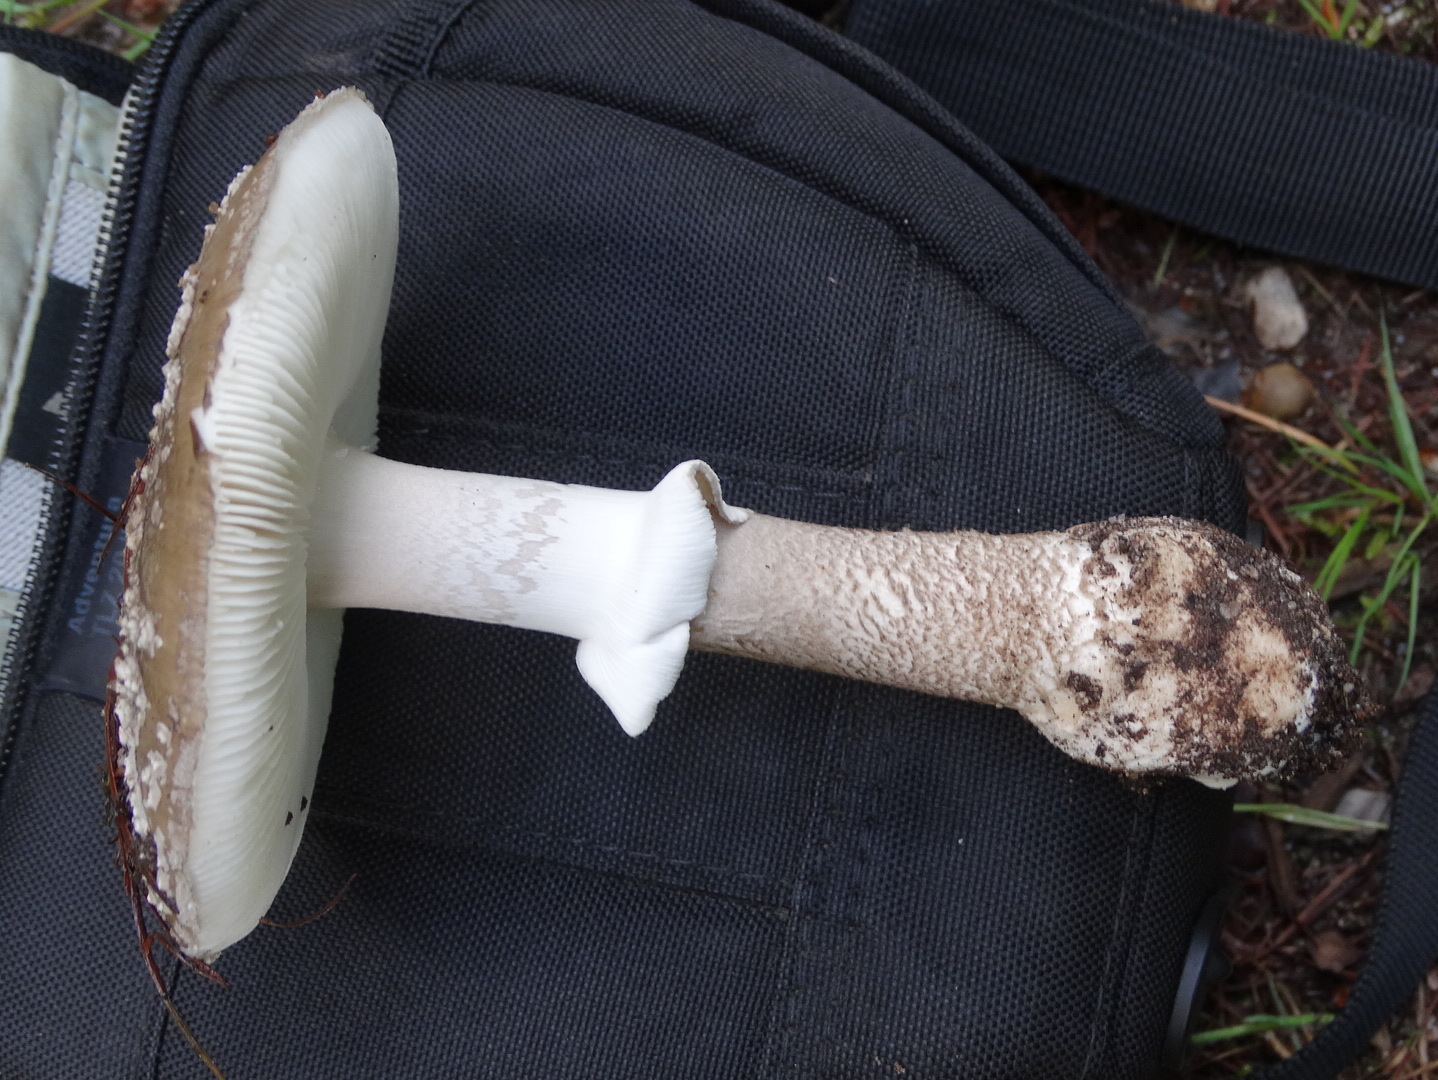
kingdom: Fungi
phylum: Basidiomycota
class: Agaricomycetes
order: Agaricales
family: Amanitaceae
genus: Amanita
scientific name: Amanita pantherina
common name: panter-fluesvamp
